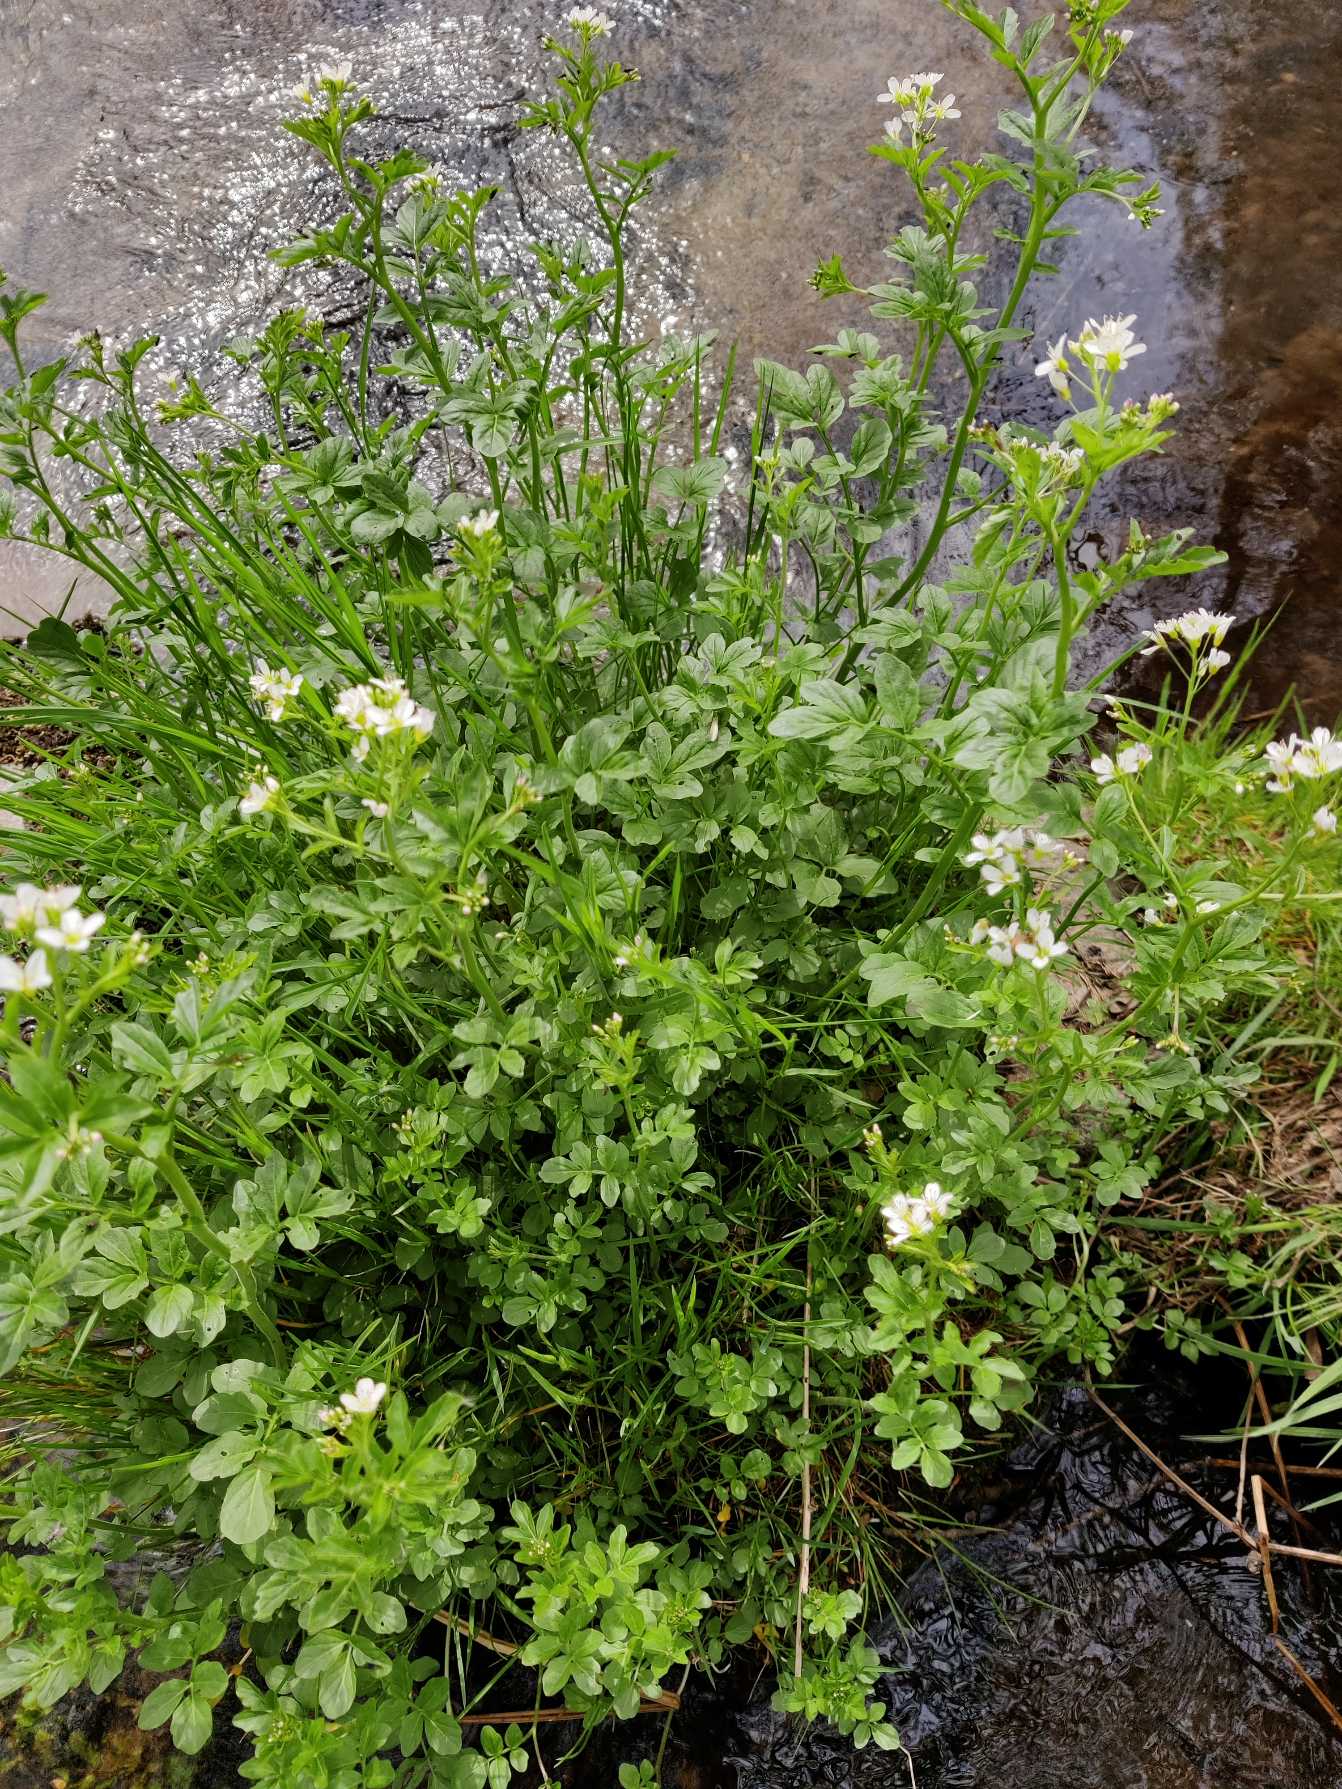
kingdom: Plantae
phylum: Tracheophyta
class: Magnoliopsida
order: Brassicales
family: Brassicaceae
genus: Cardamine
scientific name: Cardamine amara
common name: Vandkarse
